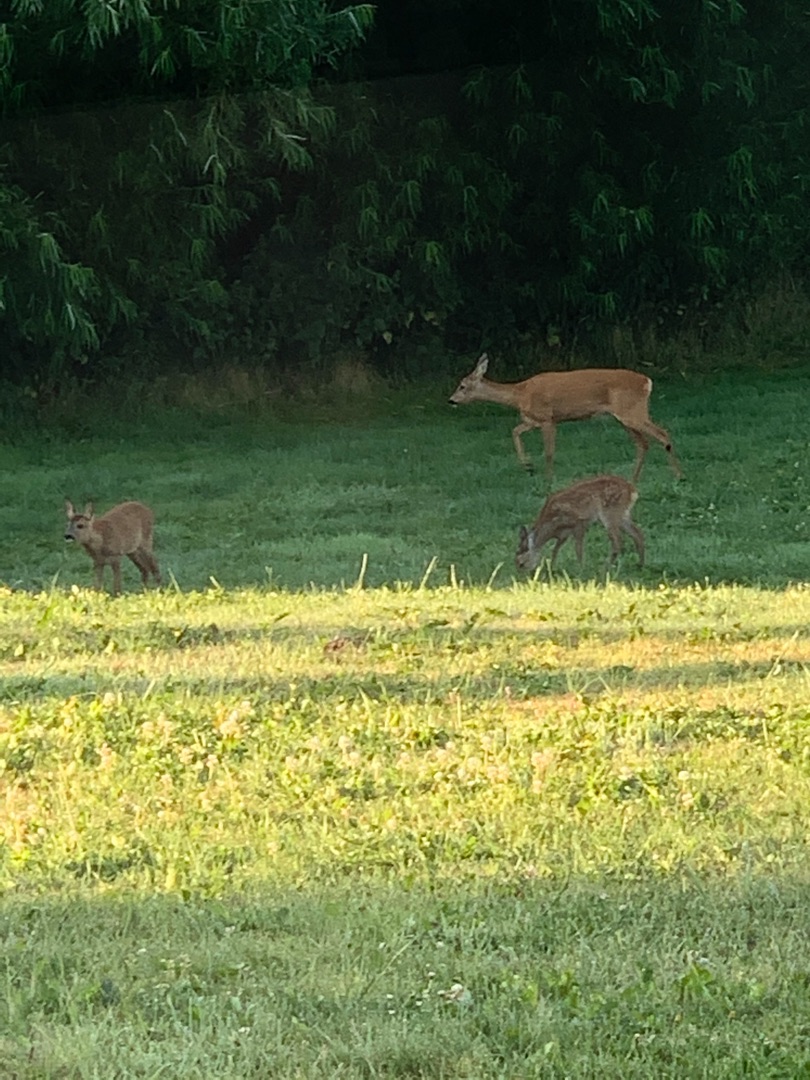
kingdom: Animalia
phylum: Chordata
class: Mammalia
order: Artiodactyla
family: Cervidae
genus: Capreolus
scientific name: Capreolus capreolus
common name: Rådyr
